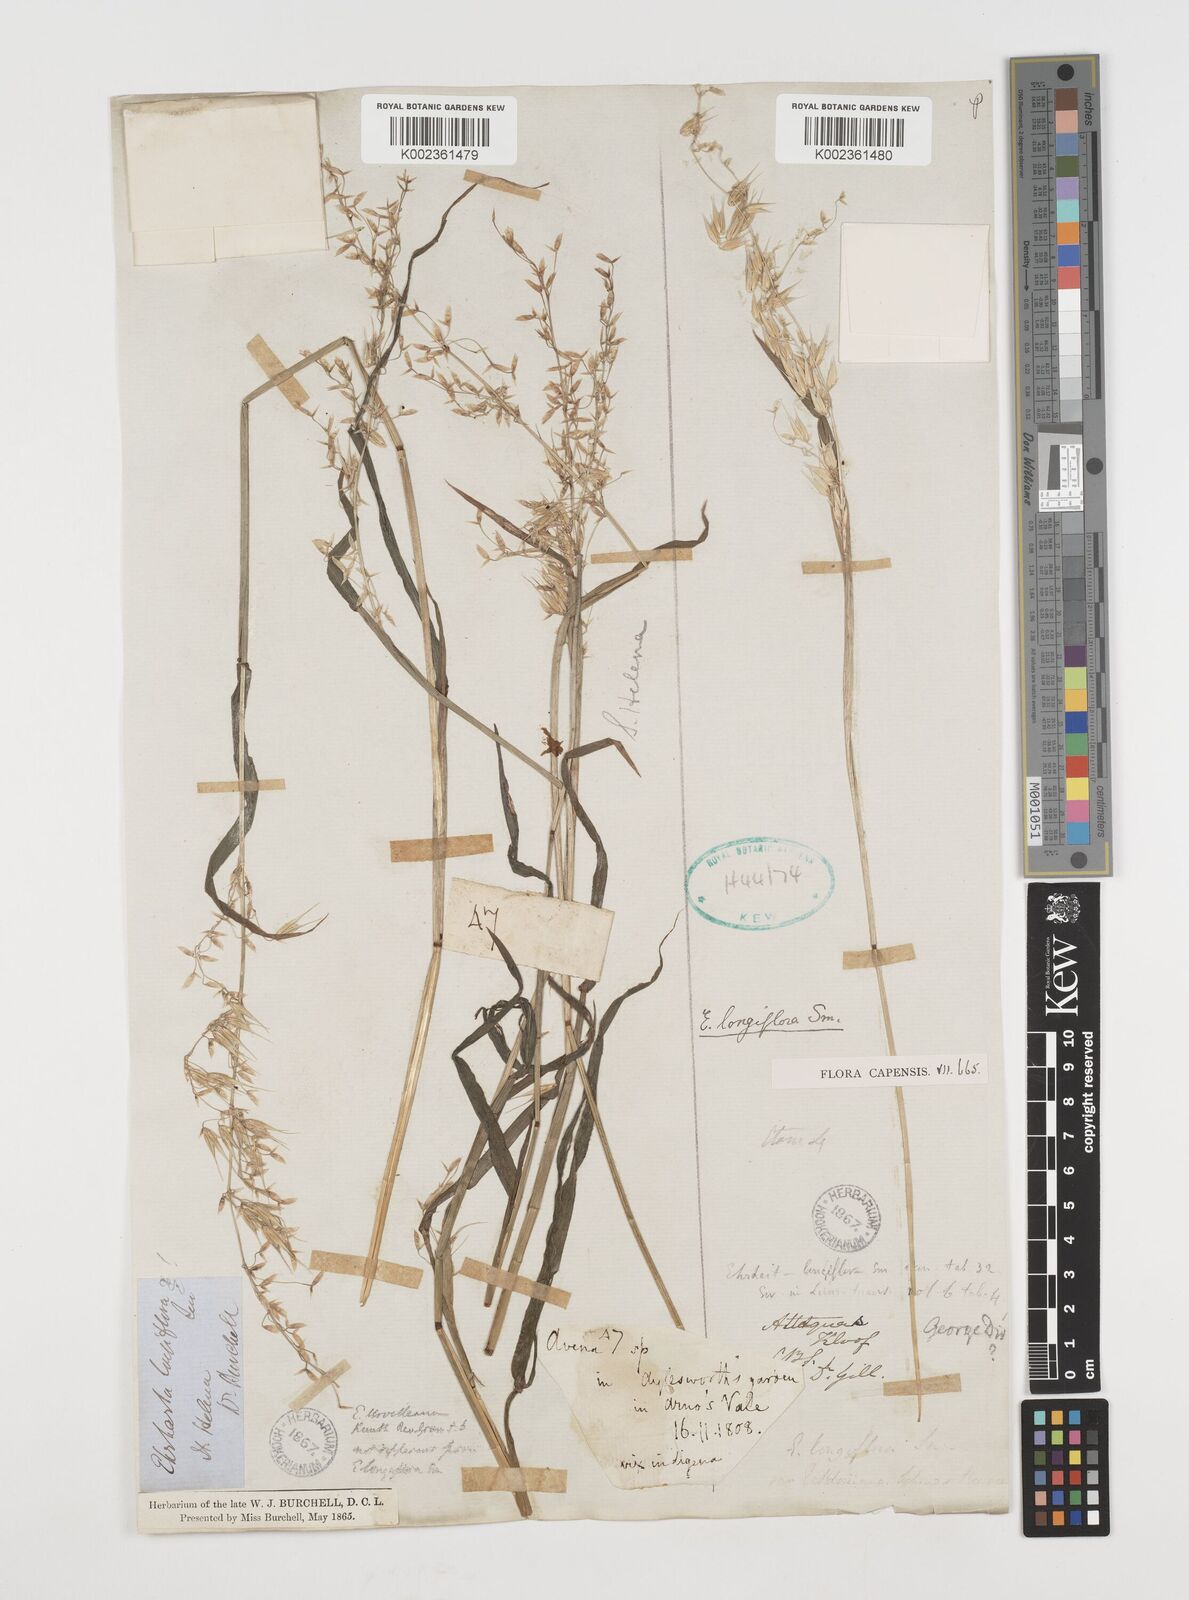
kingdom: Plantae
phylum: Tracheophyta
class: Liliopsida
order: Poales
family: Poaceae
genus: Ehrharta
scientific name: Ehrharta longiflora
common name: Longflowered veldtgrass
